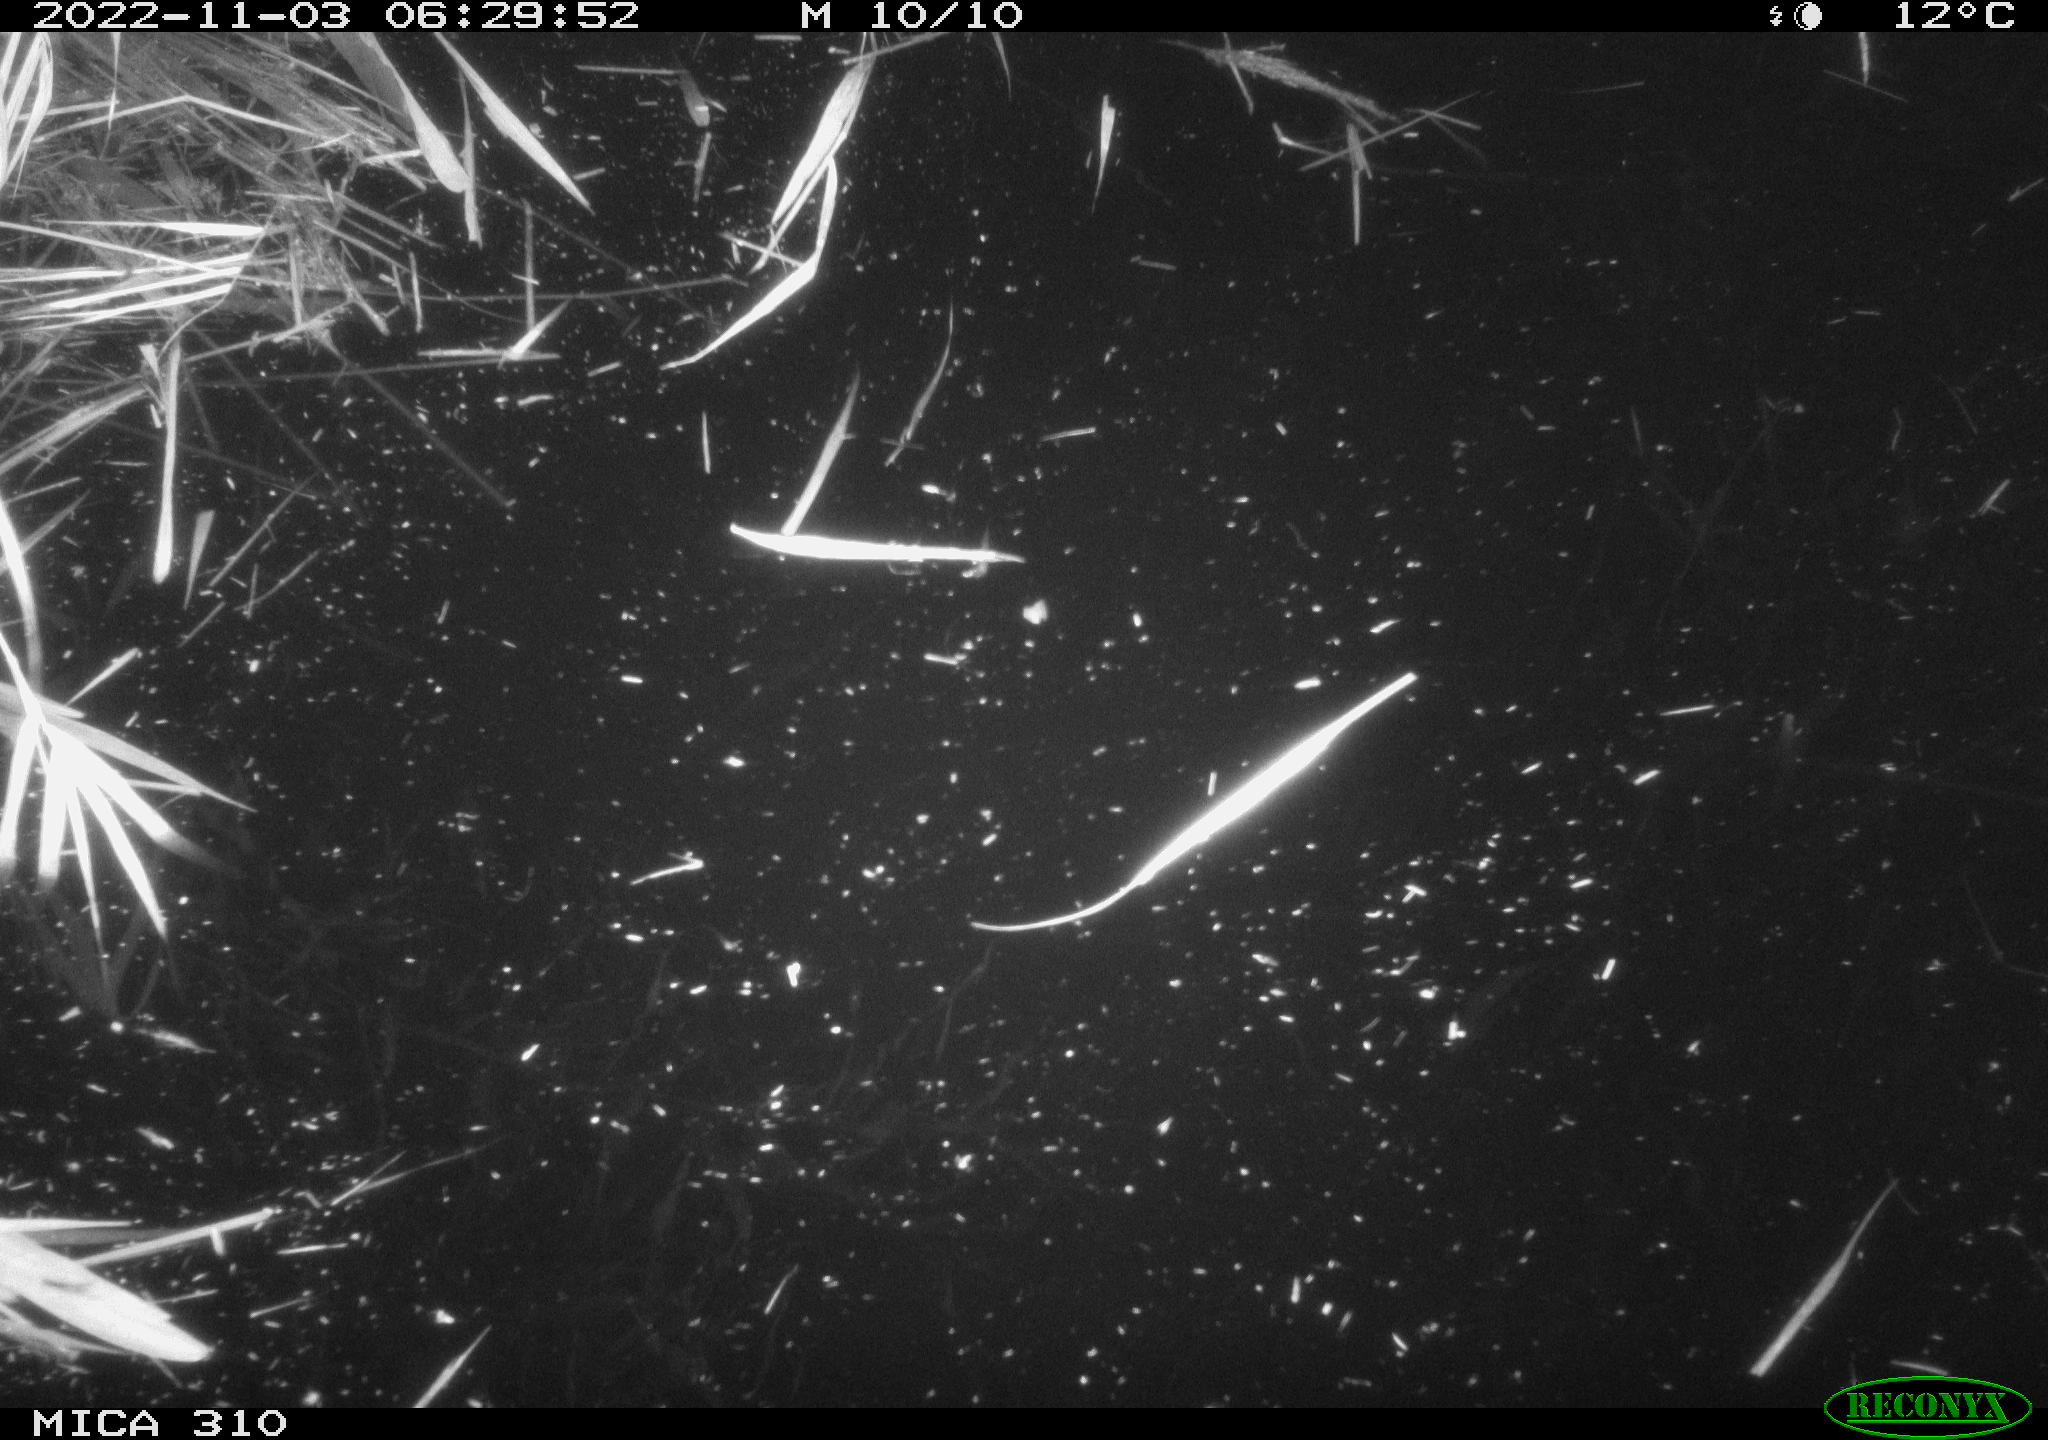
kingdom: Animalia
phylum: Chordata
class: Mammalia
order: Rodentia
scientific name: Rodentia
